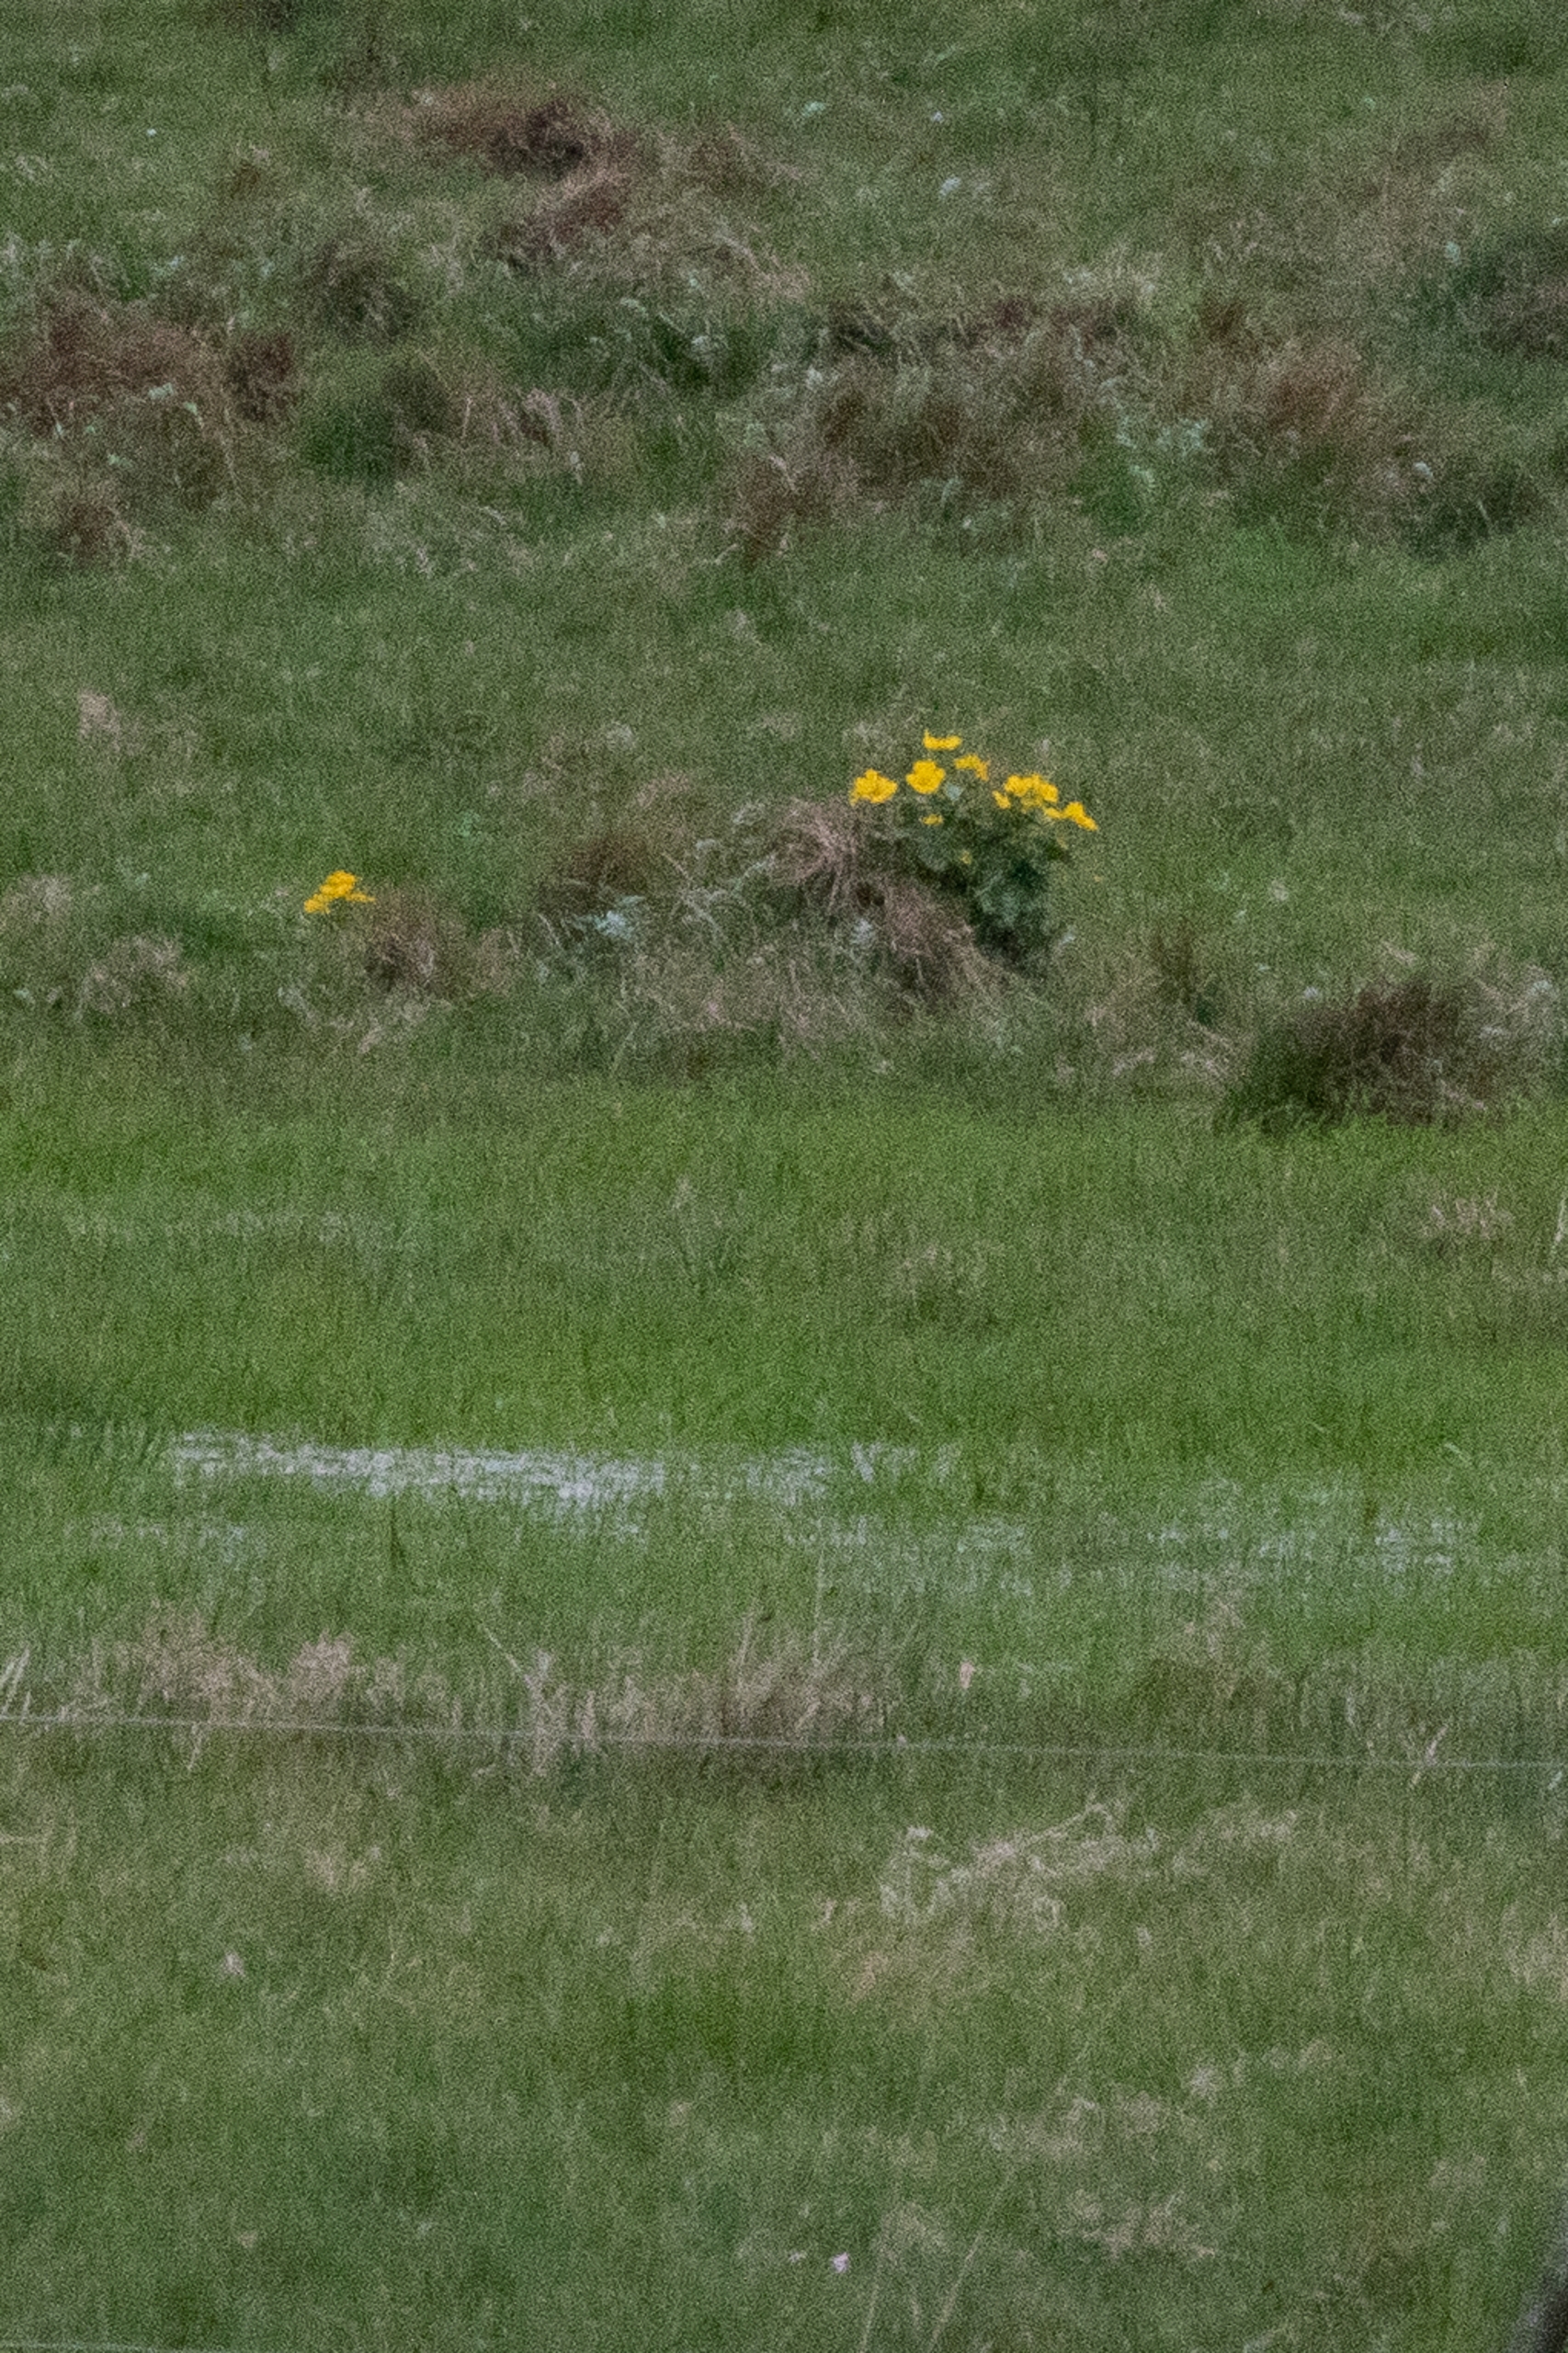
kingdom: Plantae
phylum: Tracheophyta
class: Magnoliopsida
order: Ranunculales
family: Ranunculaceae
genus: Caltha
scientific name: Caltha palustris
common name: Eng-kabbeleje
